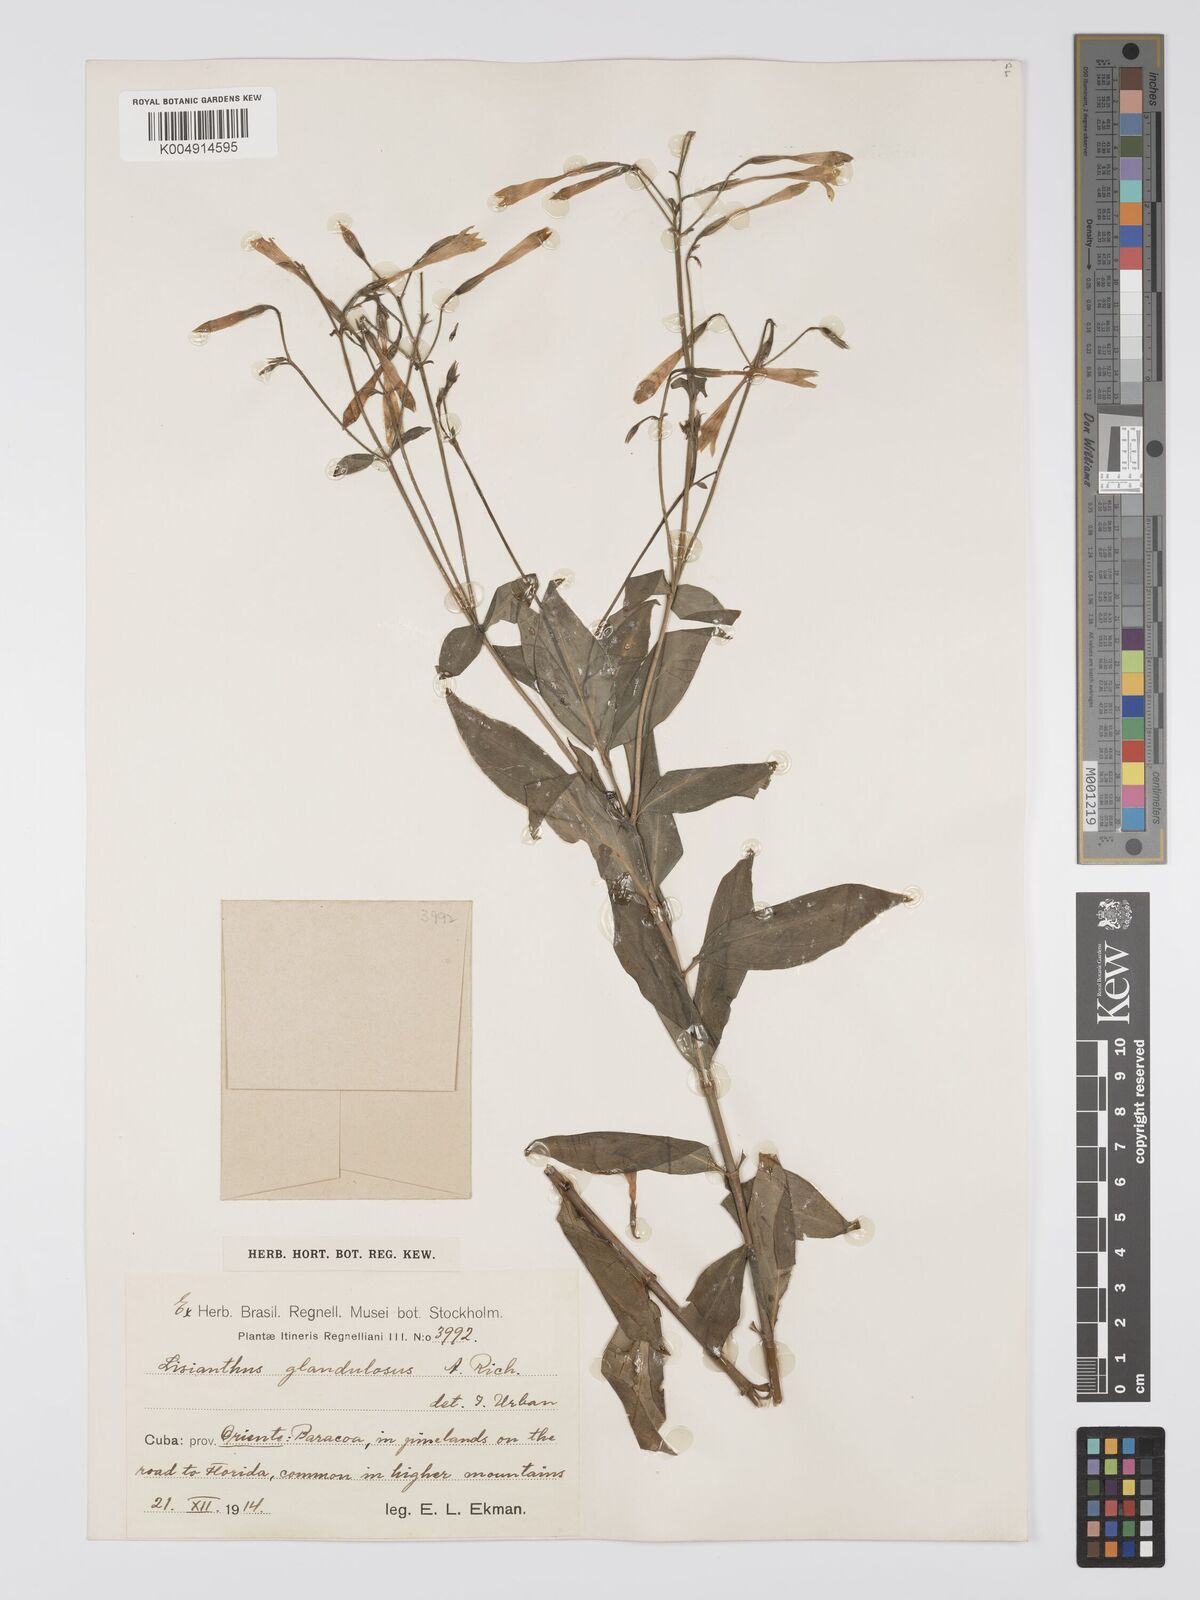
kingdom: Plantae
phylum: Tracheophyta
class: Magnoliopsida
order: Gentianales
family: Gentianaceae
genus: Lisianthus
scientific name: Lisianthus glandulosus
